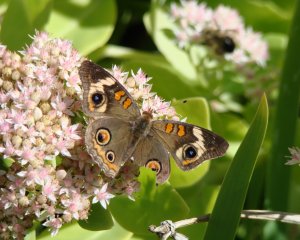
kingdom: Animalia
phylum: Arthropoda
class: Insecta
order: Lepidoptera
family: Nymphalidae
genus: Junonia
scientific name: Junonia coenia
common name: Common Buckeye
